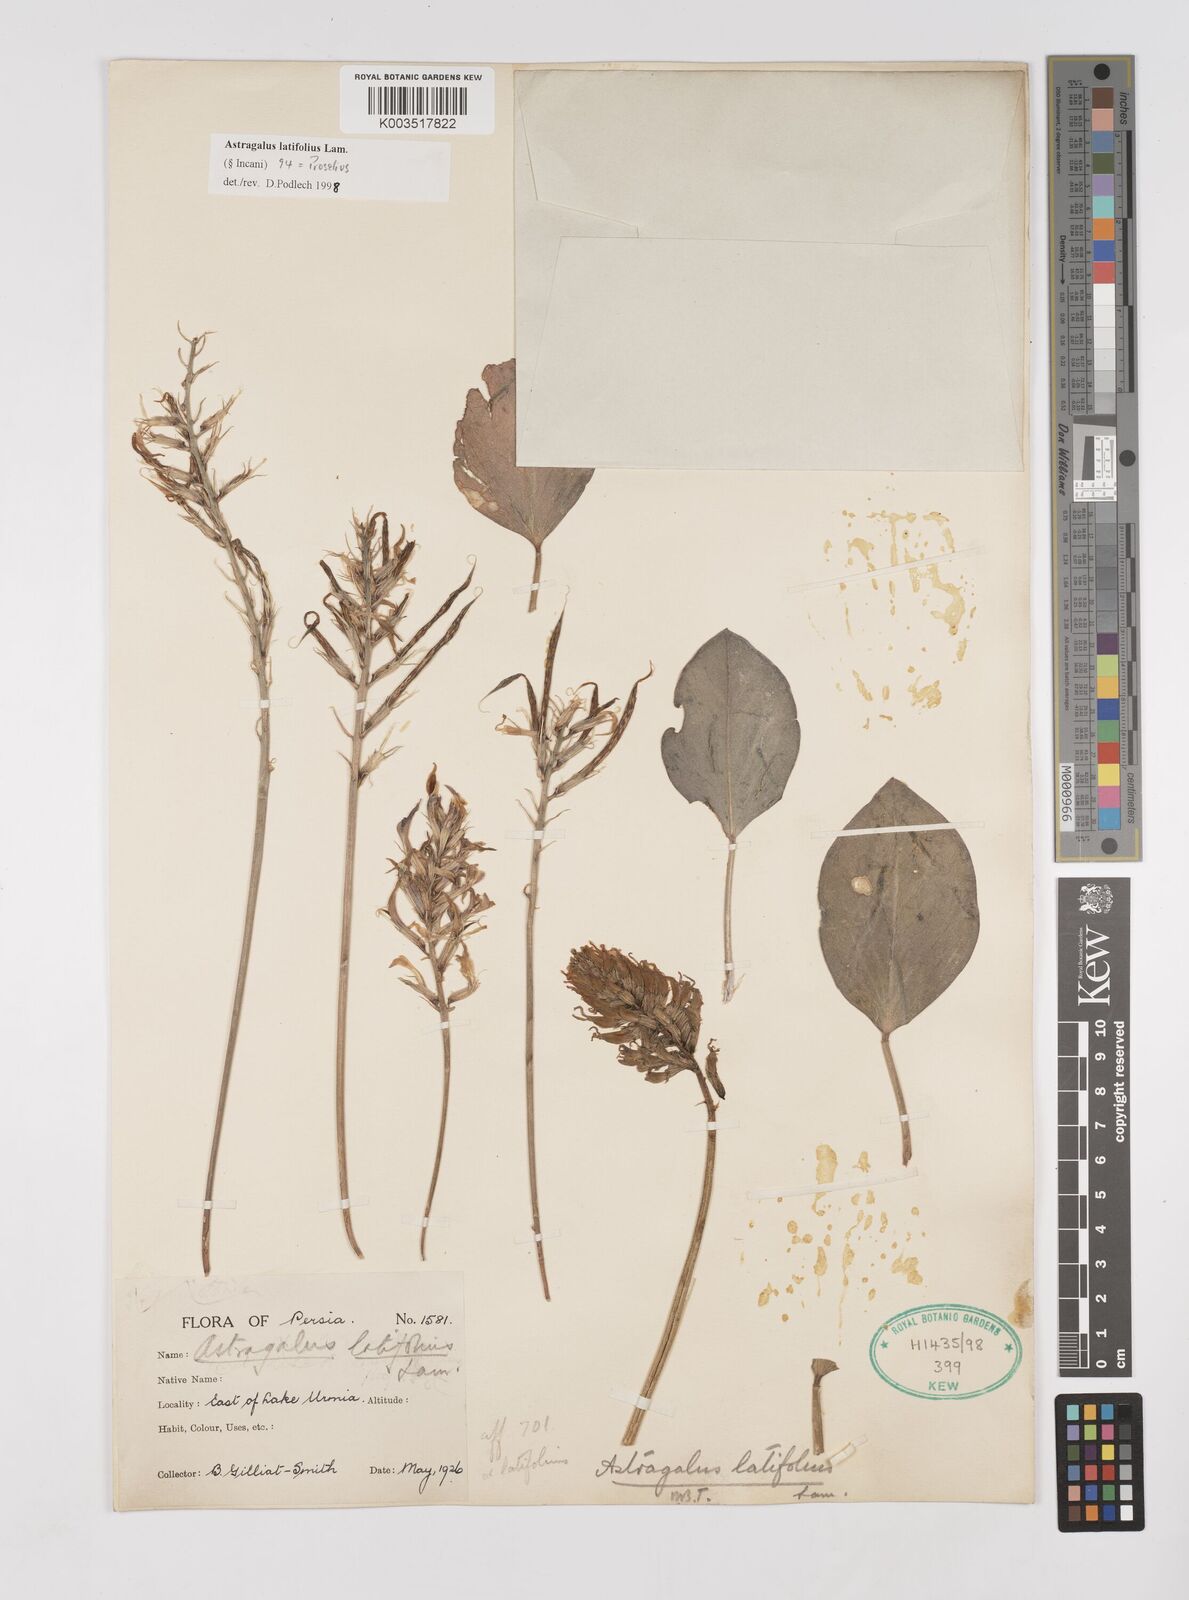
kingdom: Plantae
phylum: Tracheophyta
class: Magnoliopsida
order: Fabales
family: Fabaceae
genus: Astragalus
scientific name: Astragalus latifolius
